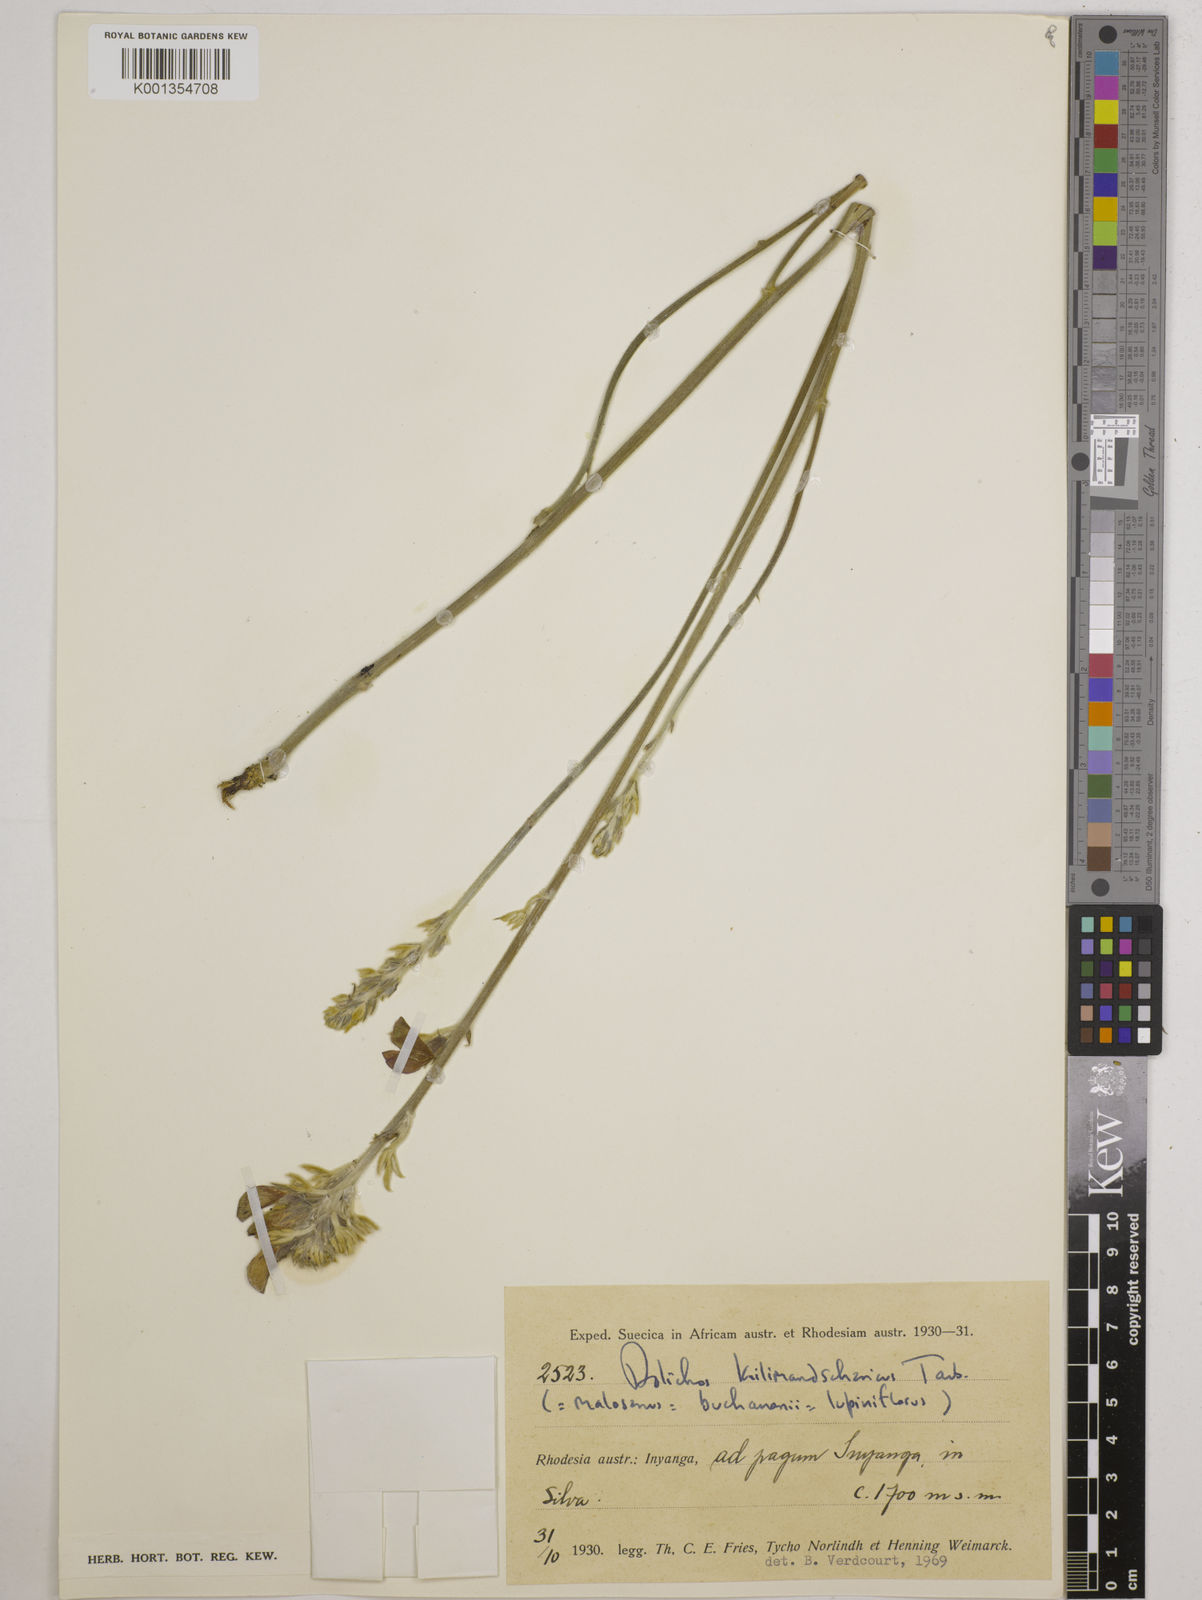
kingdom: Plantae
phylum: Tracheophyta
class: Magnoliopsida
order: Fabales
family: Fabaceae
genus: Dolichos
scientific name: Dolichos kilimandscharicus
